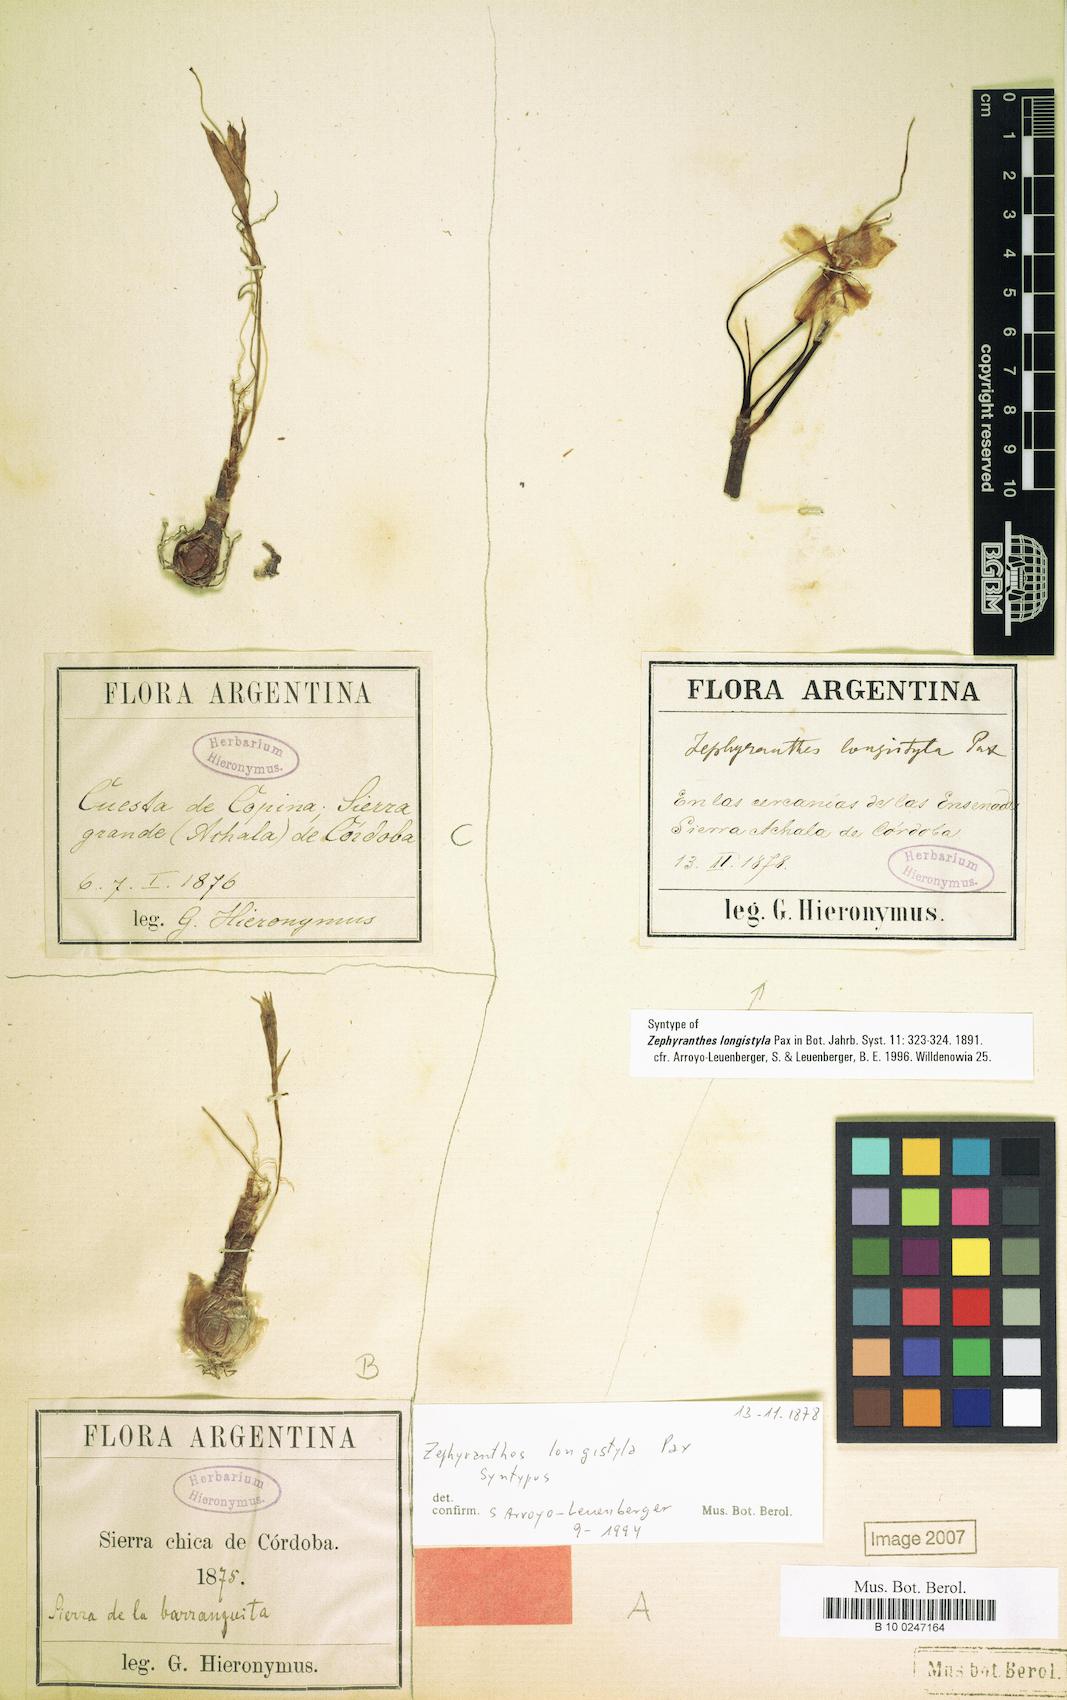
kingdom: Plantae
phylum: Tracheophyta
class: Liliopsida
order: Asparagales
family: Amaryllidaceae
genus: Zephyranthes
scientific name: Zephyranthes longistyla
